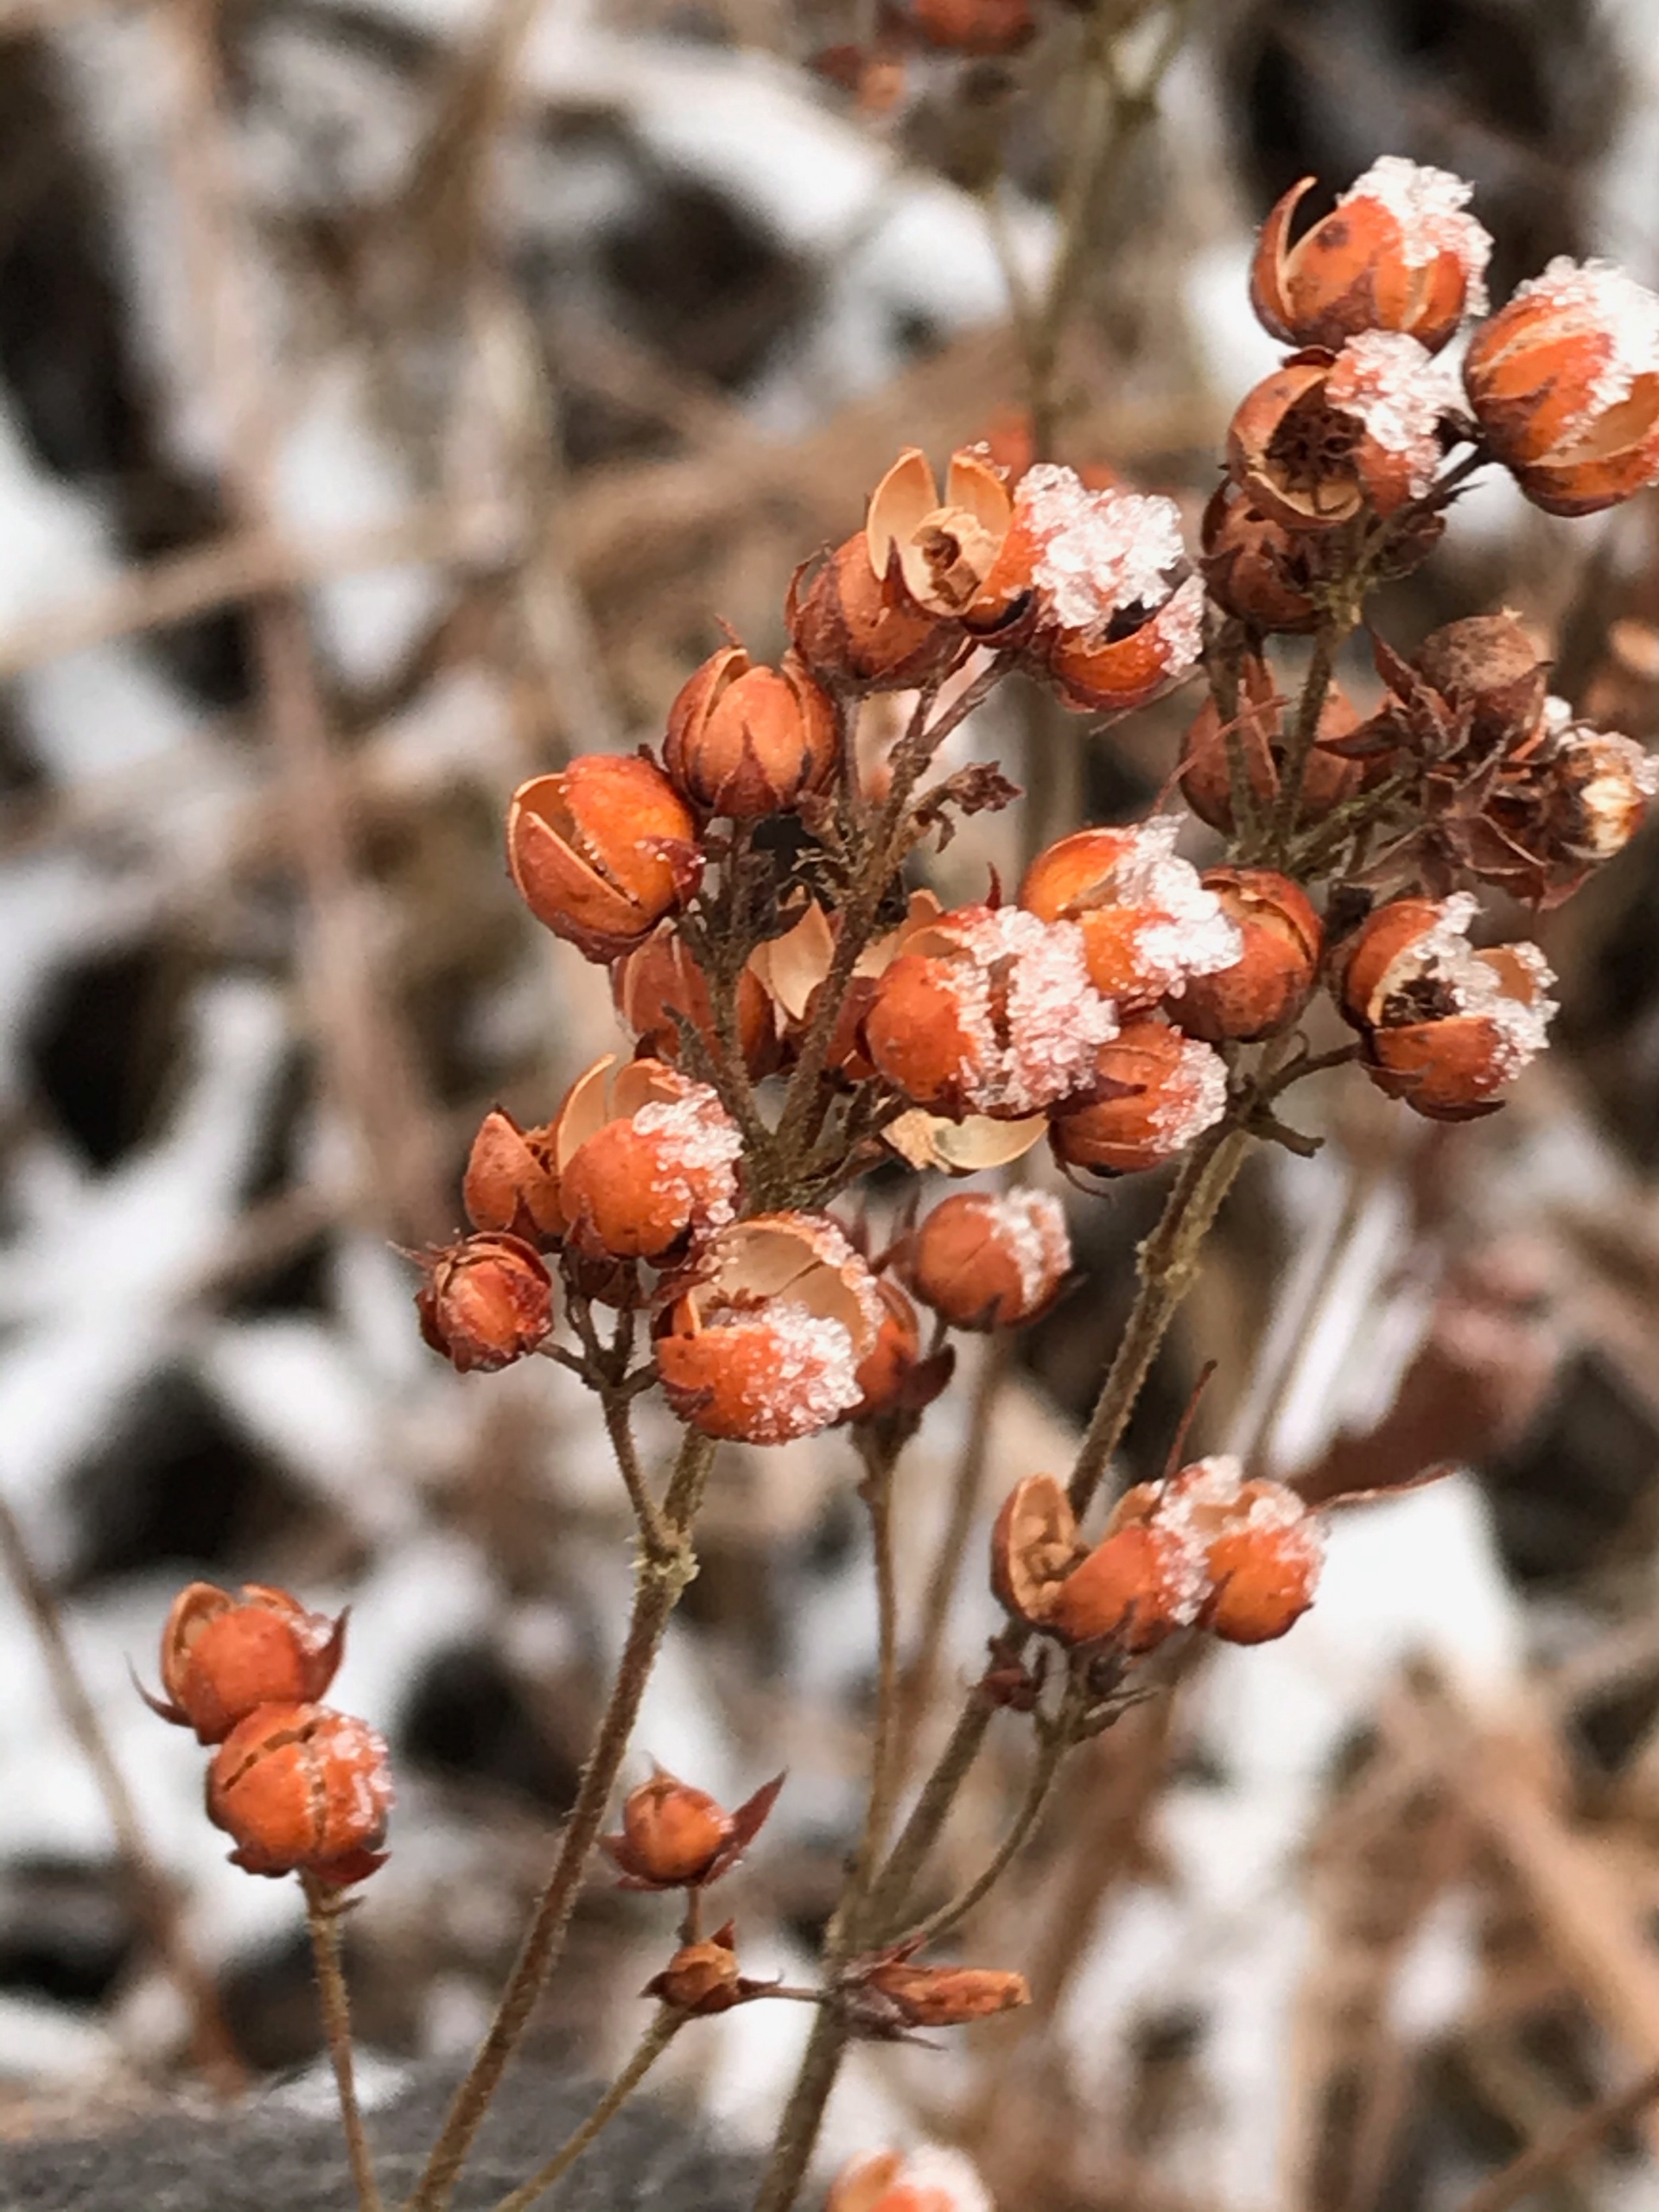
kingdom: Plantae
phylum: Tracheophyta
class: Magnoliopsida
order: Ericales
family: Primulaceae
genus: Lysimachia
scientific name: Lysimachia vulgaris
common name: Almindelig fredløs
